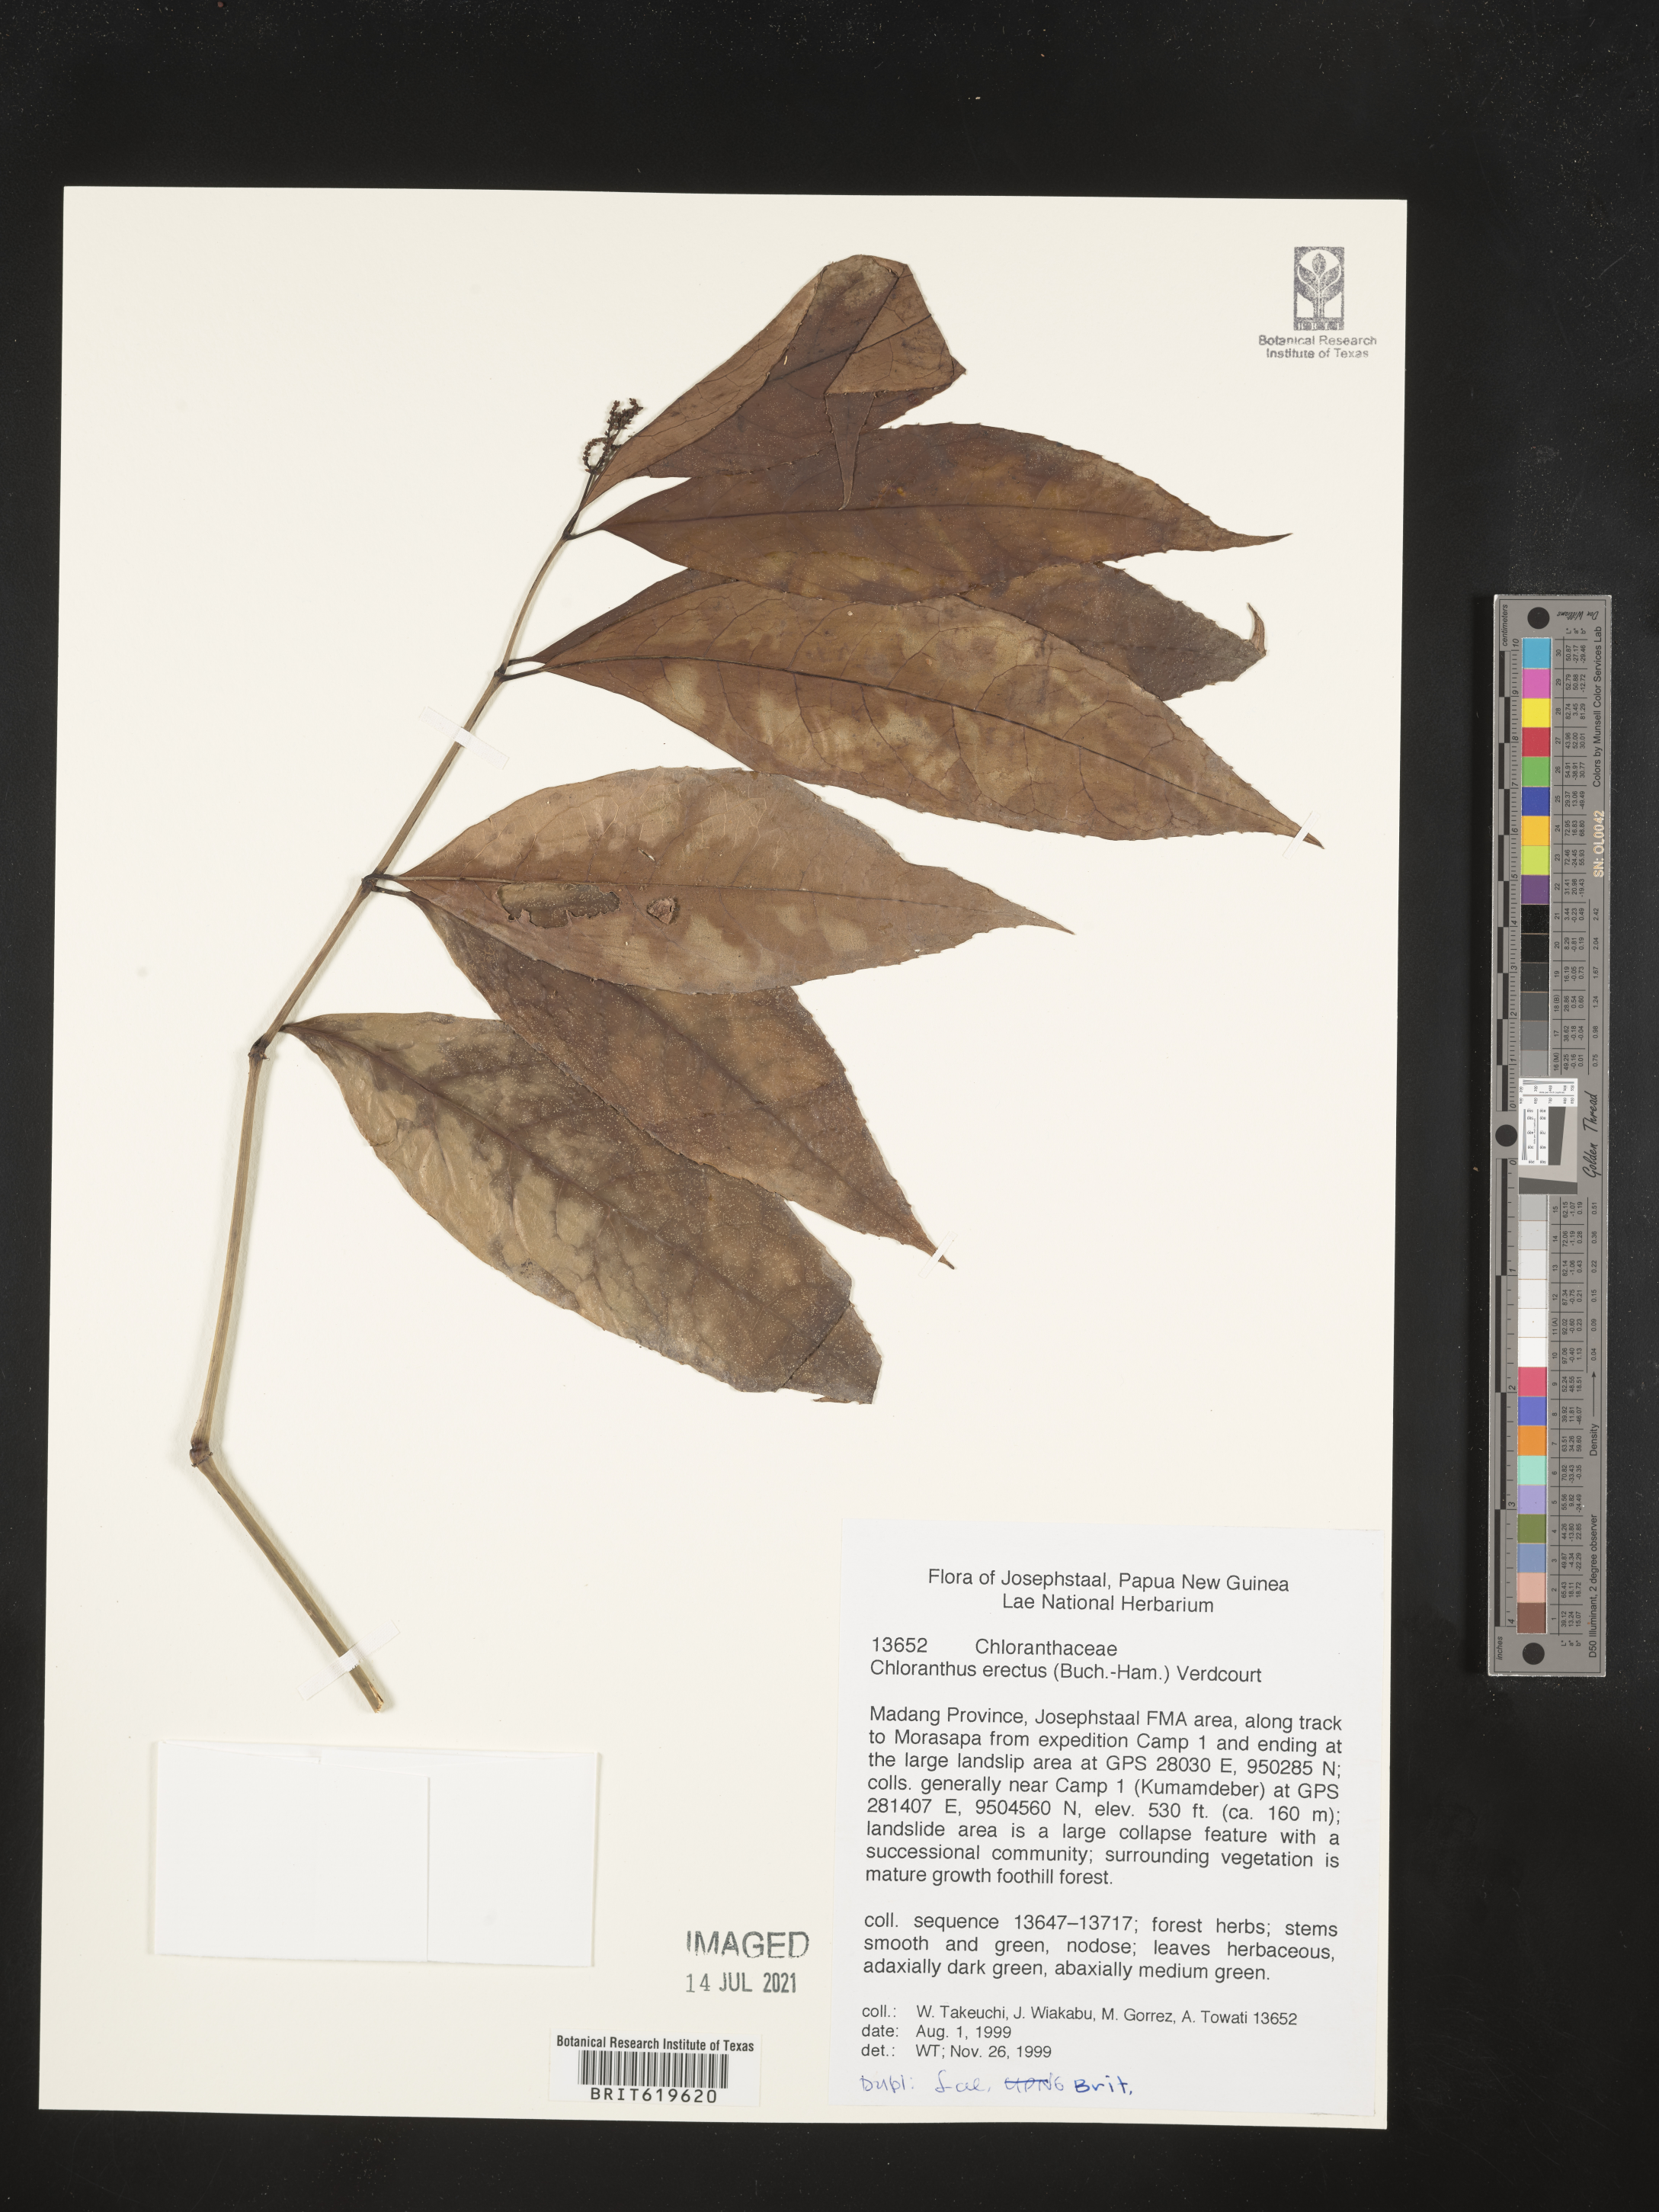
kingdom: Plantae
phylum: Tracheophyta
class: Magnoliopsida
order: Chloranthales
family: Chloranthaceae
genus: Chloranthus
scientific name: Chloranthus elatior
